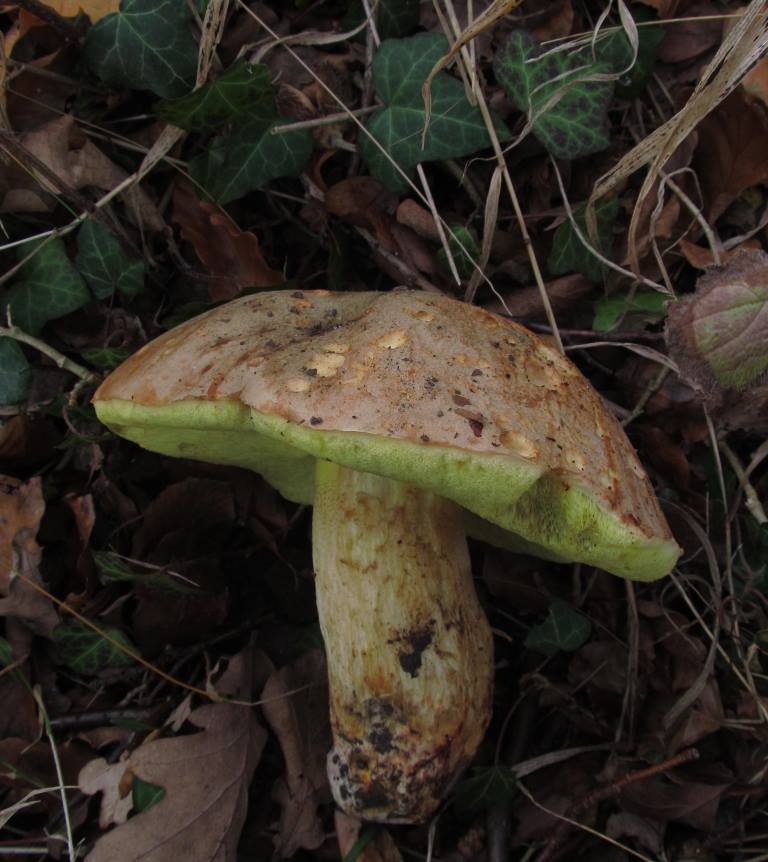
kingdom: Fungi
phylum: Basidiomycota
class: Agaricomycetes
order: Boletales
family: Boletaceae
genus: Hemileccinum
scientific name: Hemileccinum impolitum
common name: bleg rørhat
